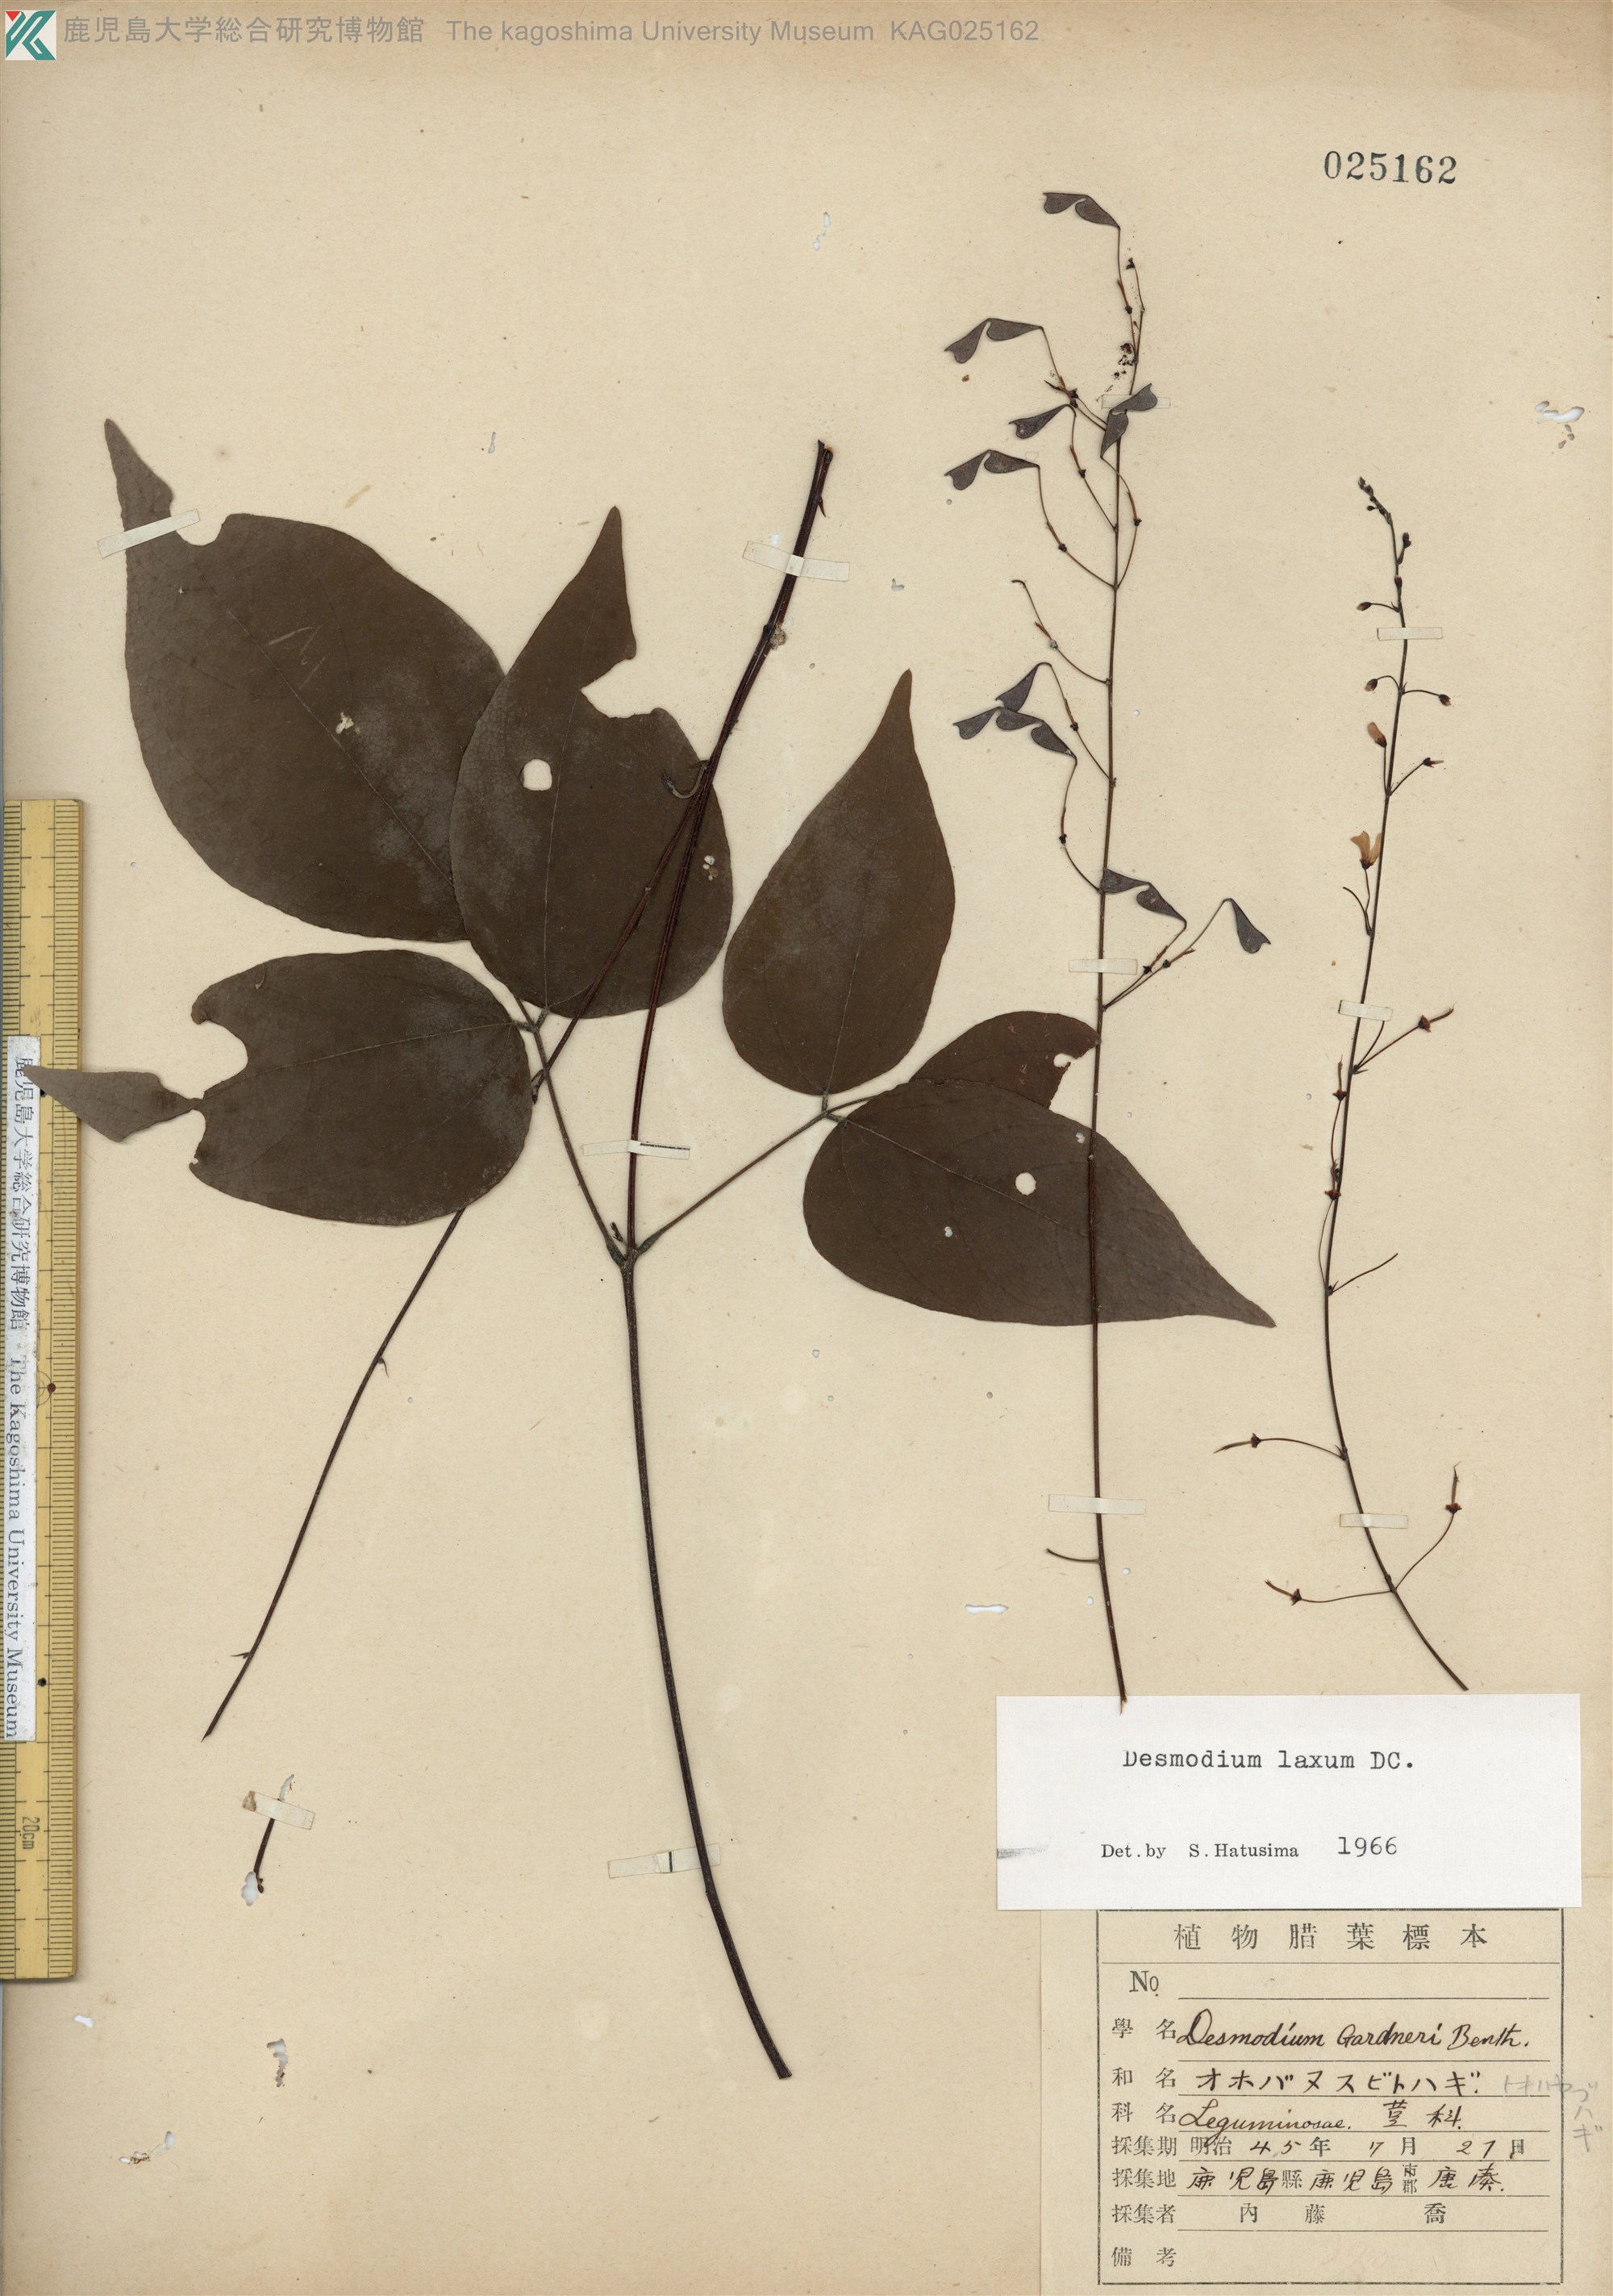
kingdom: Plantae
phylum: Tracheophyta
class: Magnoliopsida
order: Fabales
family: Fabaceae
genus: Desmodium
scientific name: Desmodium laxum
